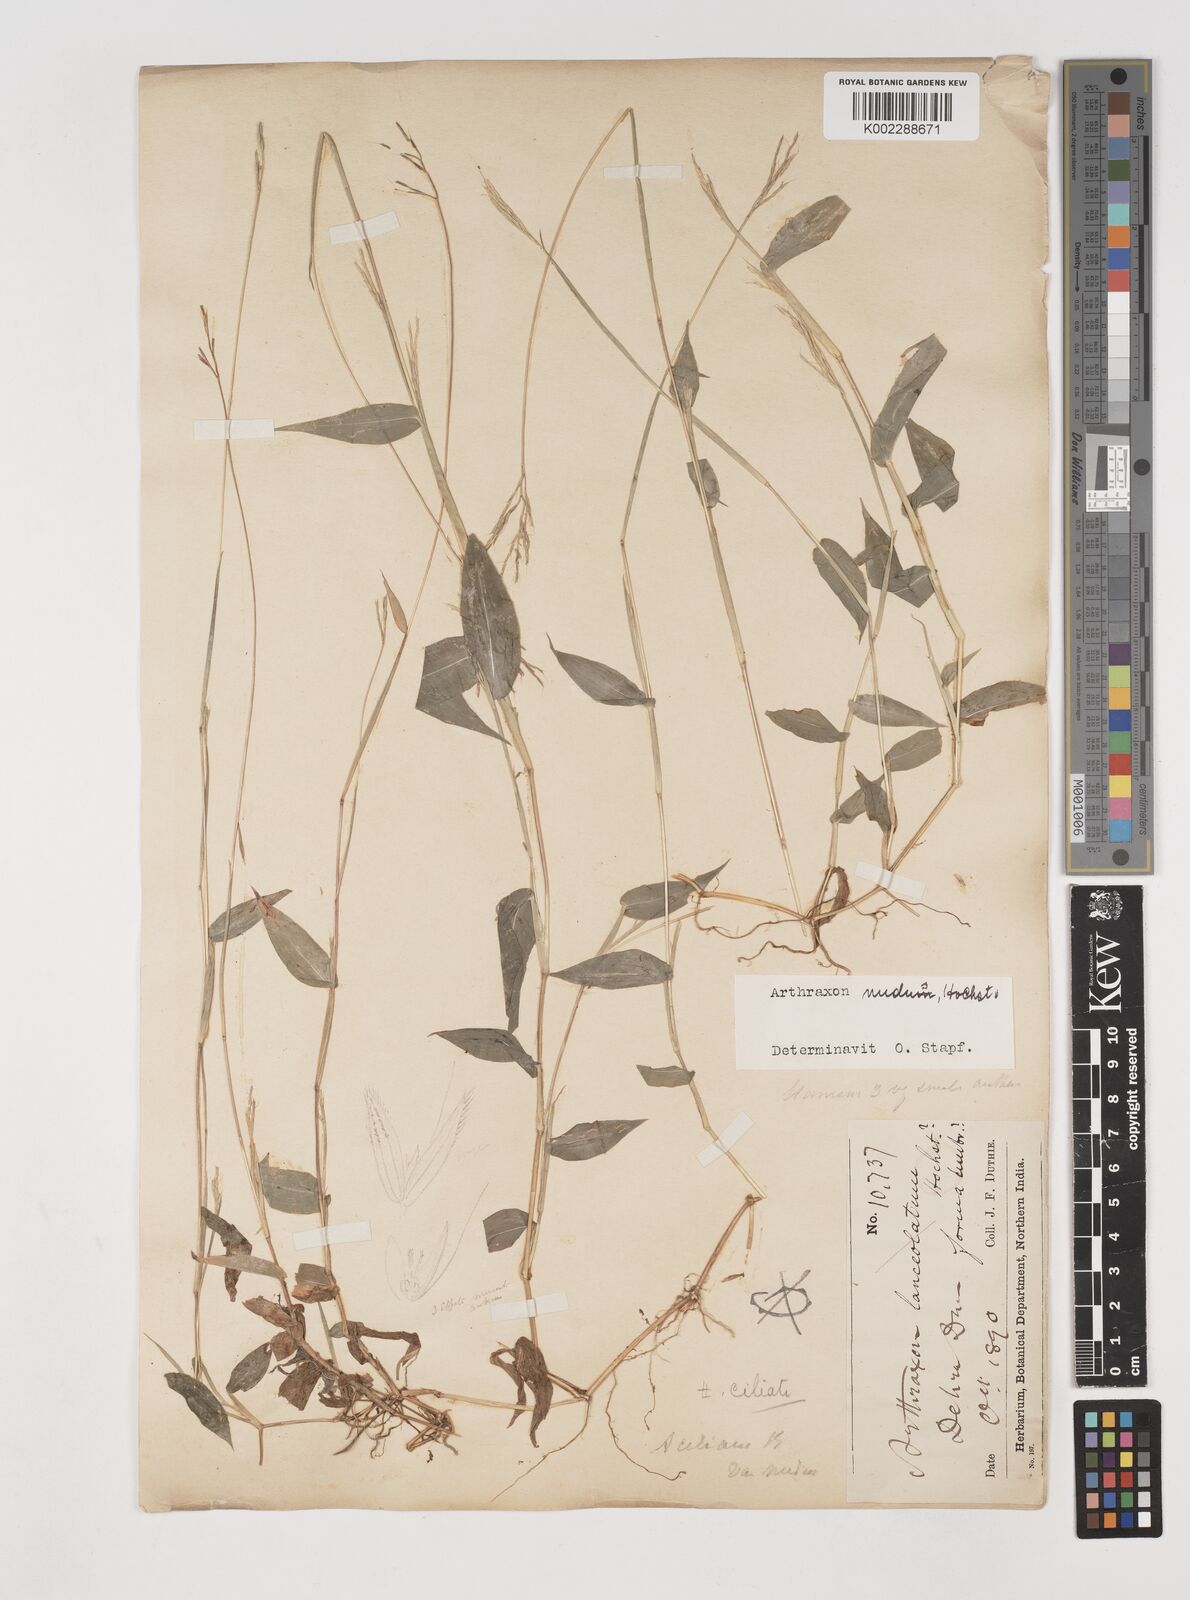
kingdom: Plantae
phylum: Tracheophyta
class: Liliopsida
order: Poales
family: Poaceae
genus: Arthraxon
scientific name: Arthraxon nudus
